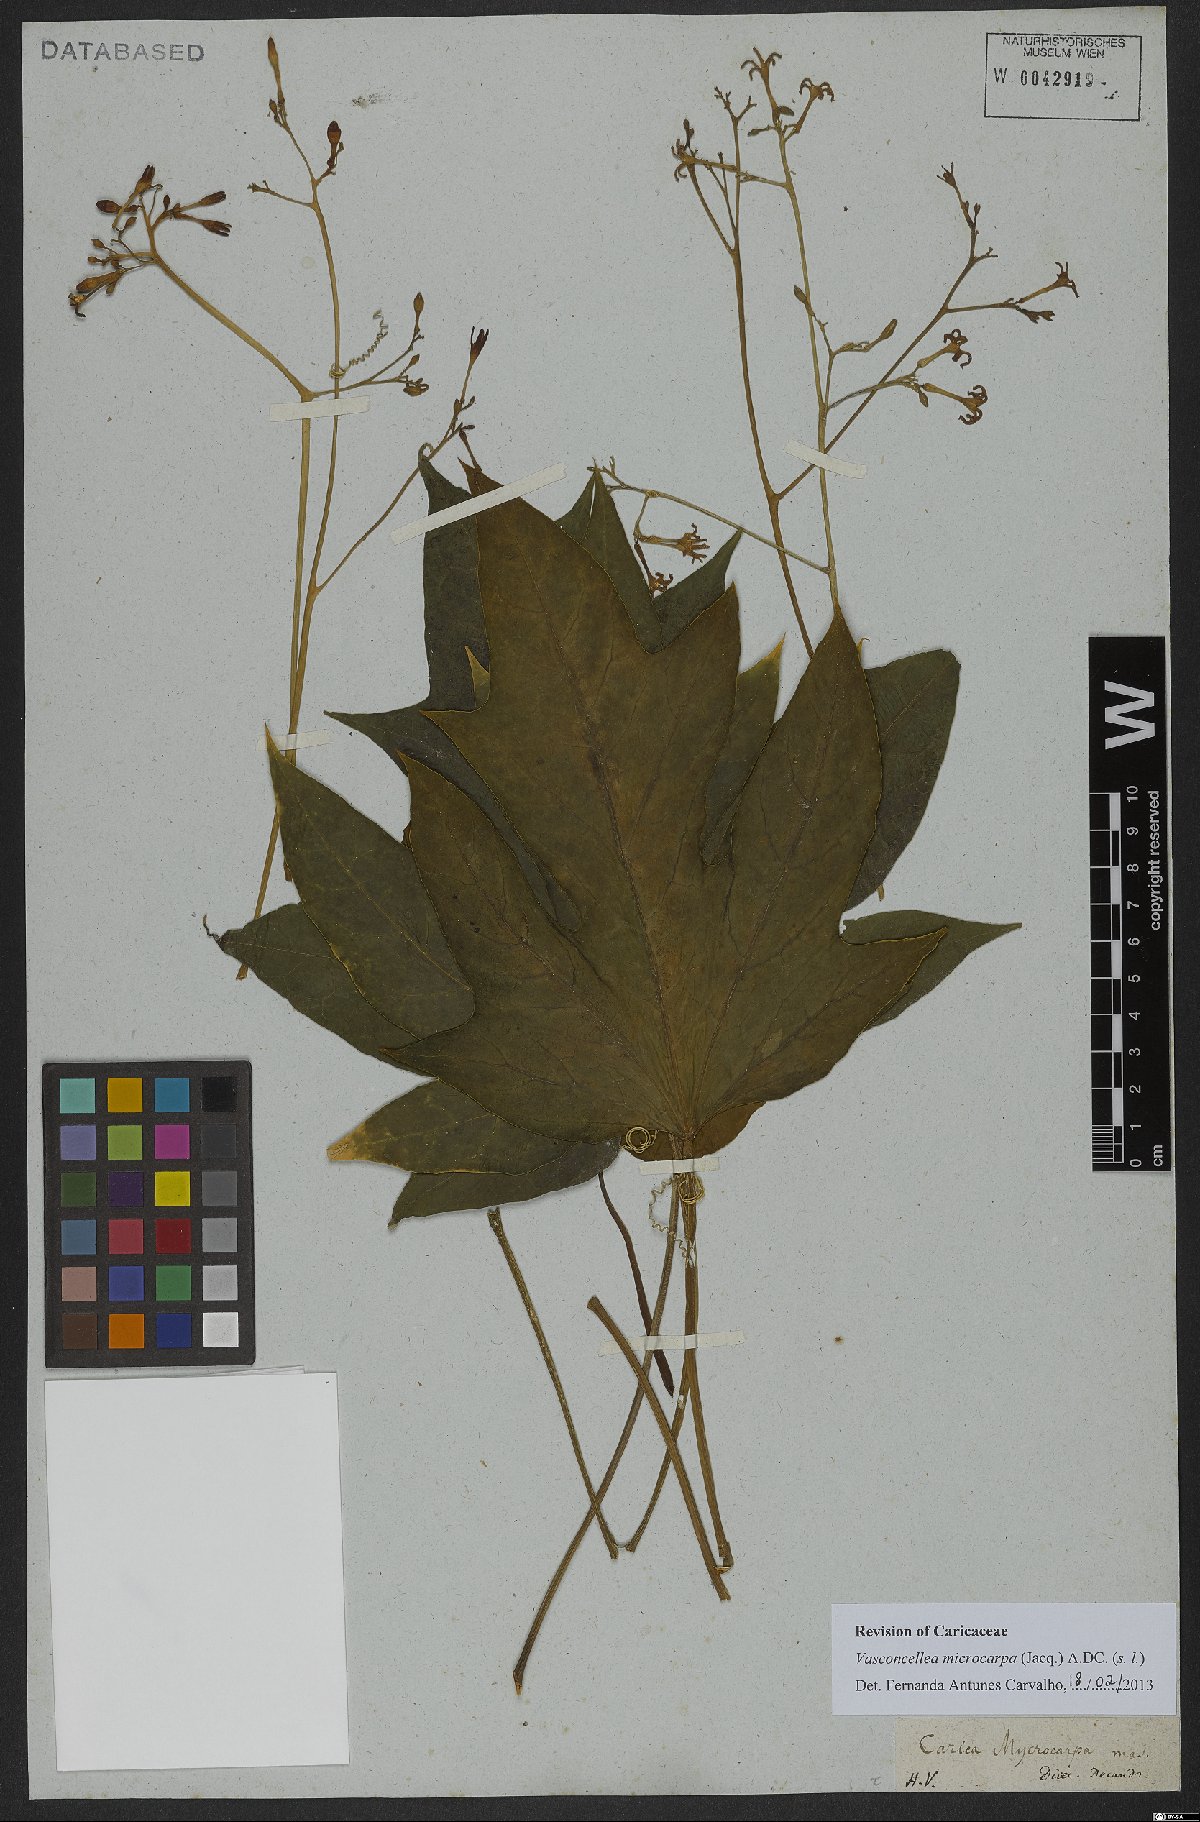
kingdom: Plantae
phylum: Tracheophyta
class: Magnoliopsida
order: Brassicales
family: Caricaceae
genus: Vasconcellea
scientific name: Vasconcellea microcarpa
